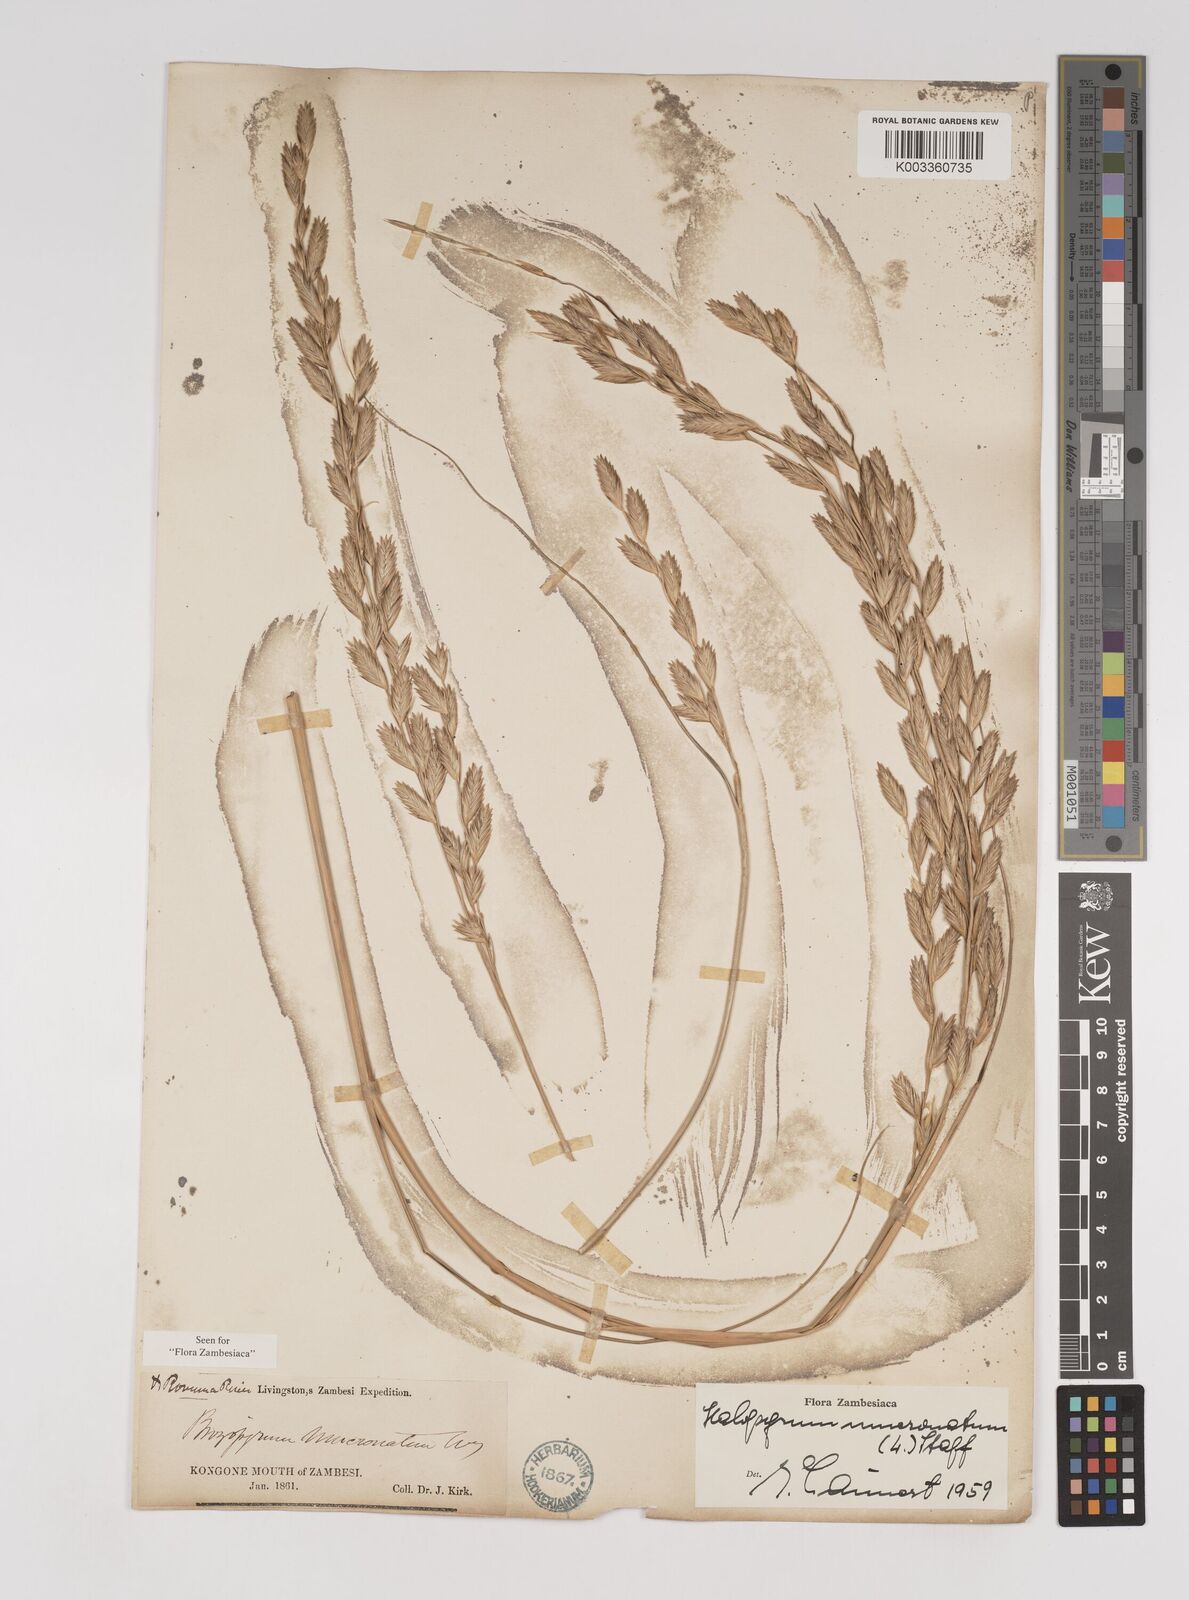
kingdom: Plantae
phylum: Tracheophyta
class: Liliopsida
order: Poales
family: Poaceae
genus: Halopyrum
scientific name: Halopyrum mucronatum
